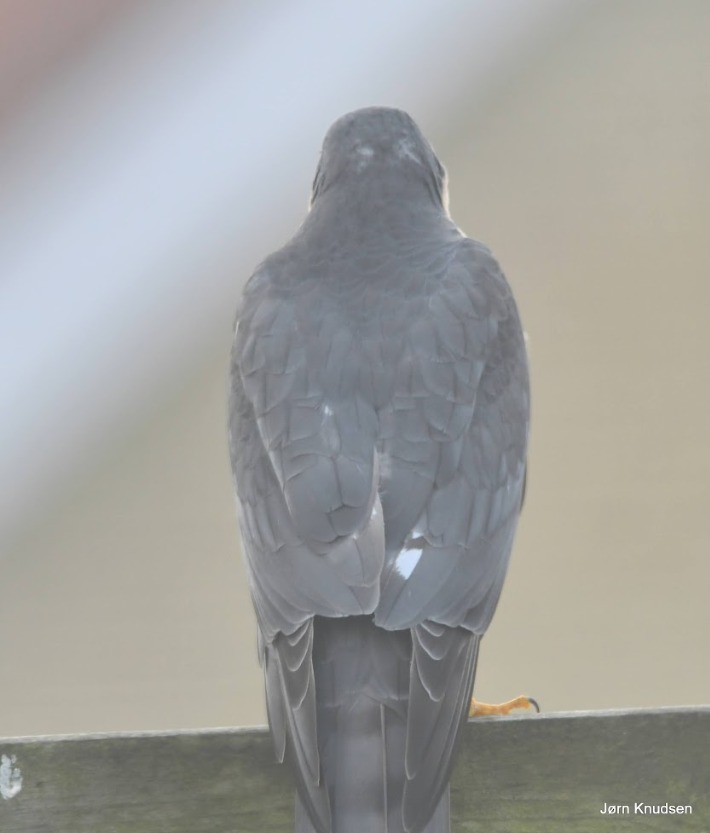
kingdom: Animalia
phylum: Chordata
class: Aves
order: Accipitriformes
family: Accipitridae
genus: Accipiter
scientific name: Accipiter nisus
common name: Spurvehøg
